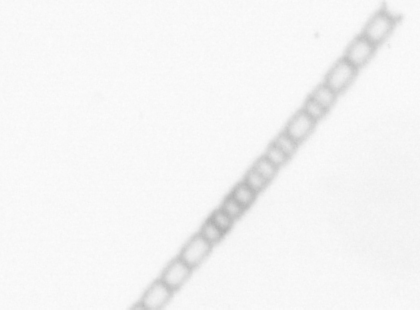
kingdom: Chromista
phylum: Ochrophyta
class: Bacillariophyceae
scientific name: Bacillariophyceae
